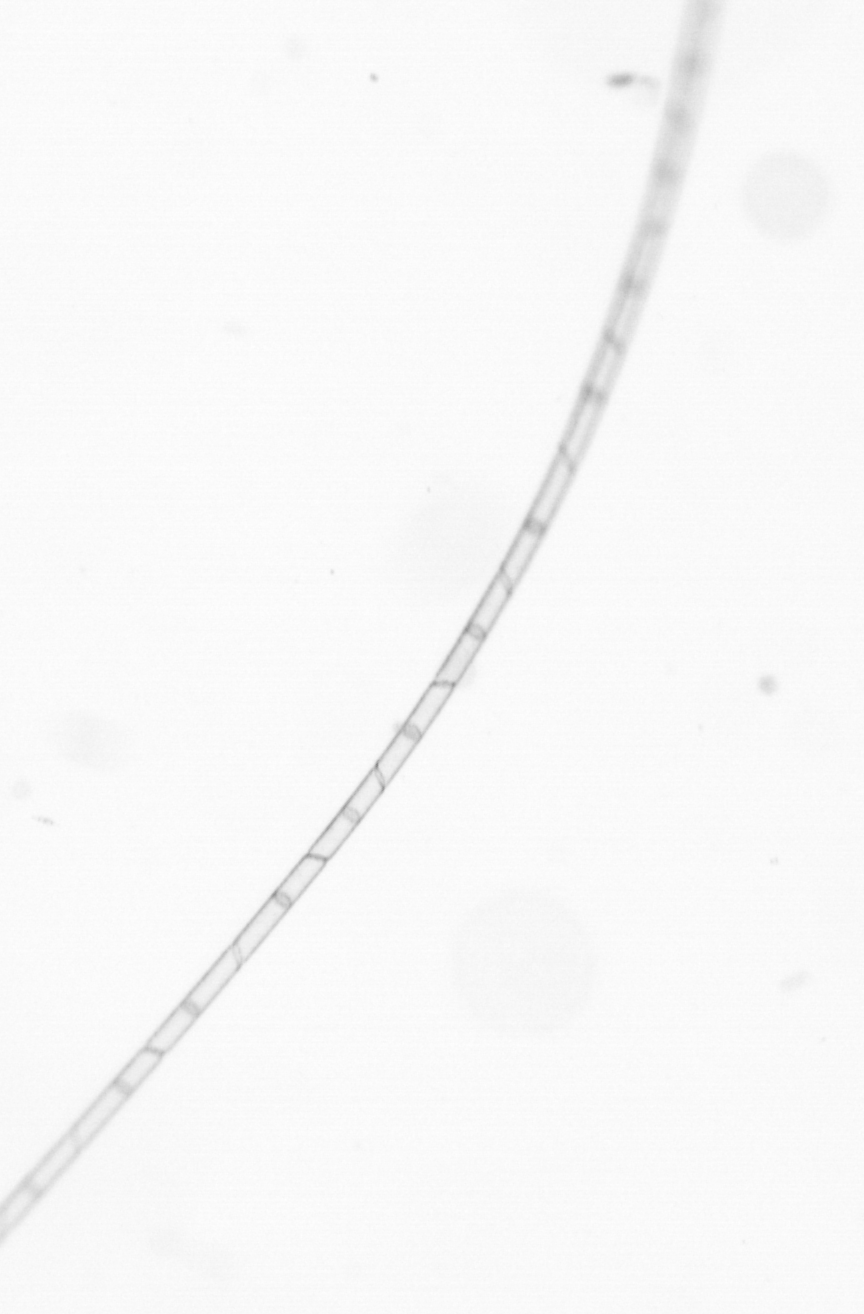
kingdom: Chromista
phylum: Ochrophyta
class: Bacillariophyceae
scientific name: Bacillariophyceae
